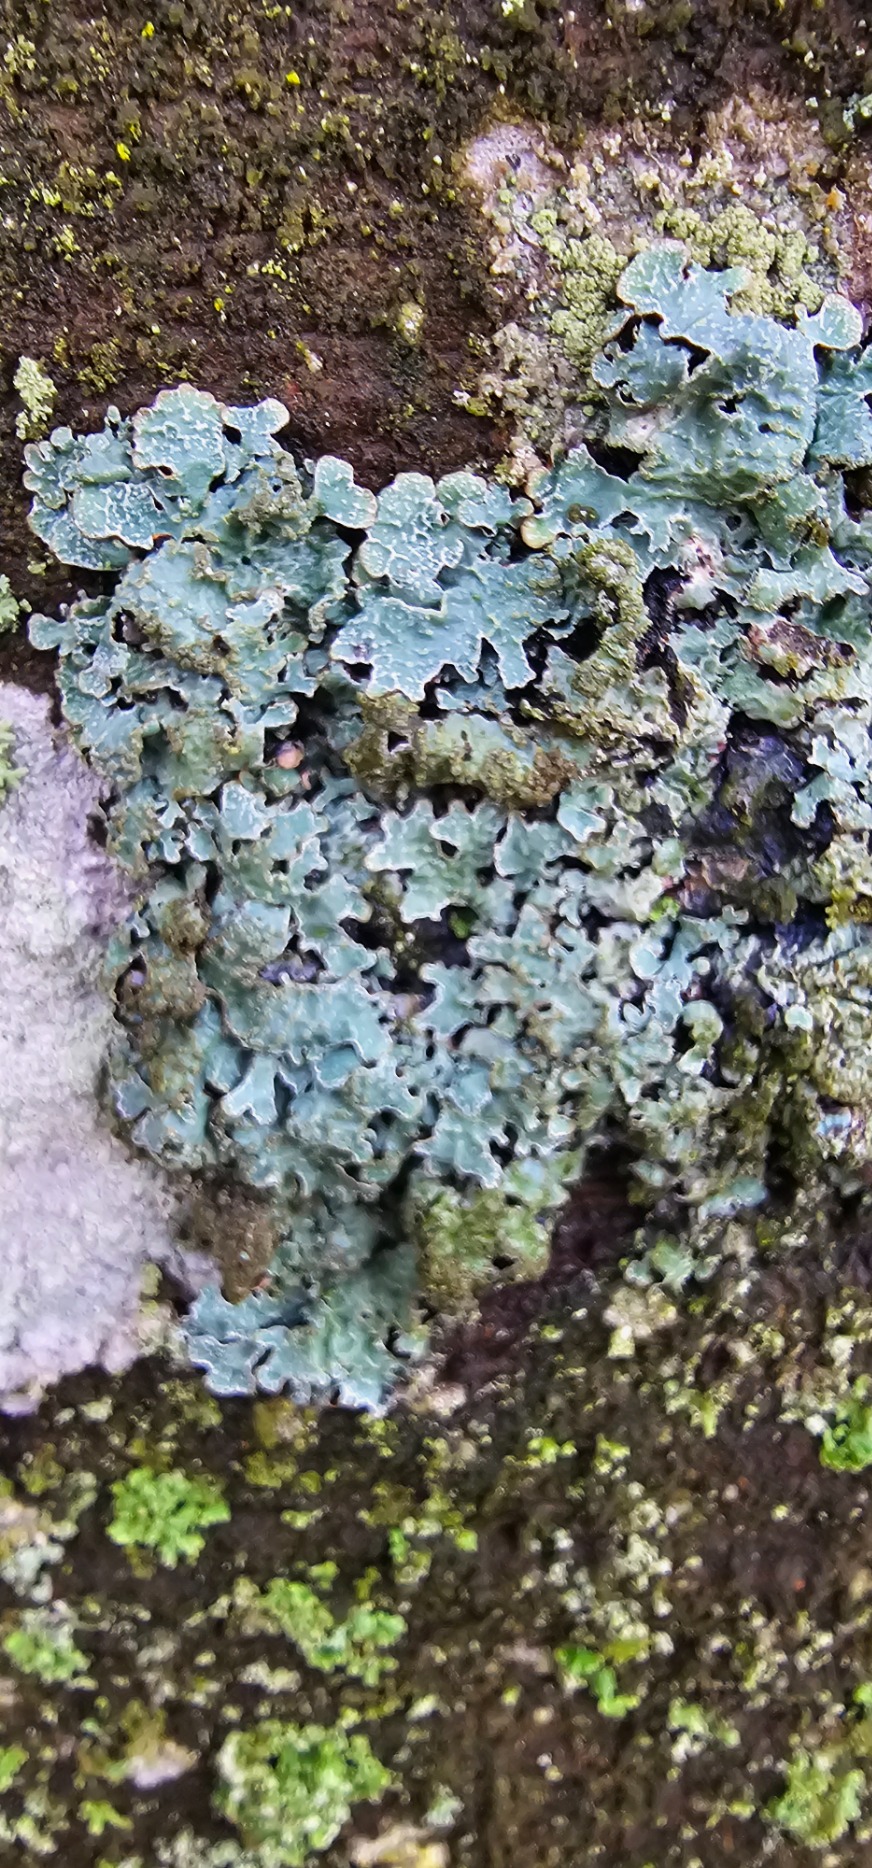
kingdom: Fungi
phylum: Ascomycota
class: Lecanoromycetes
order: Lecanorales
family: Parmeliaceae
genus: Parmelia
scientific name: Parmelia sulcata
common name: Rynket skållav
